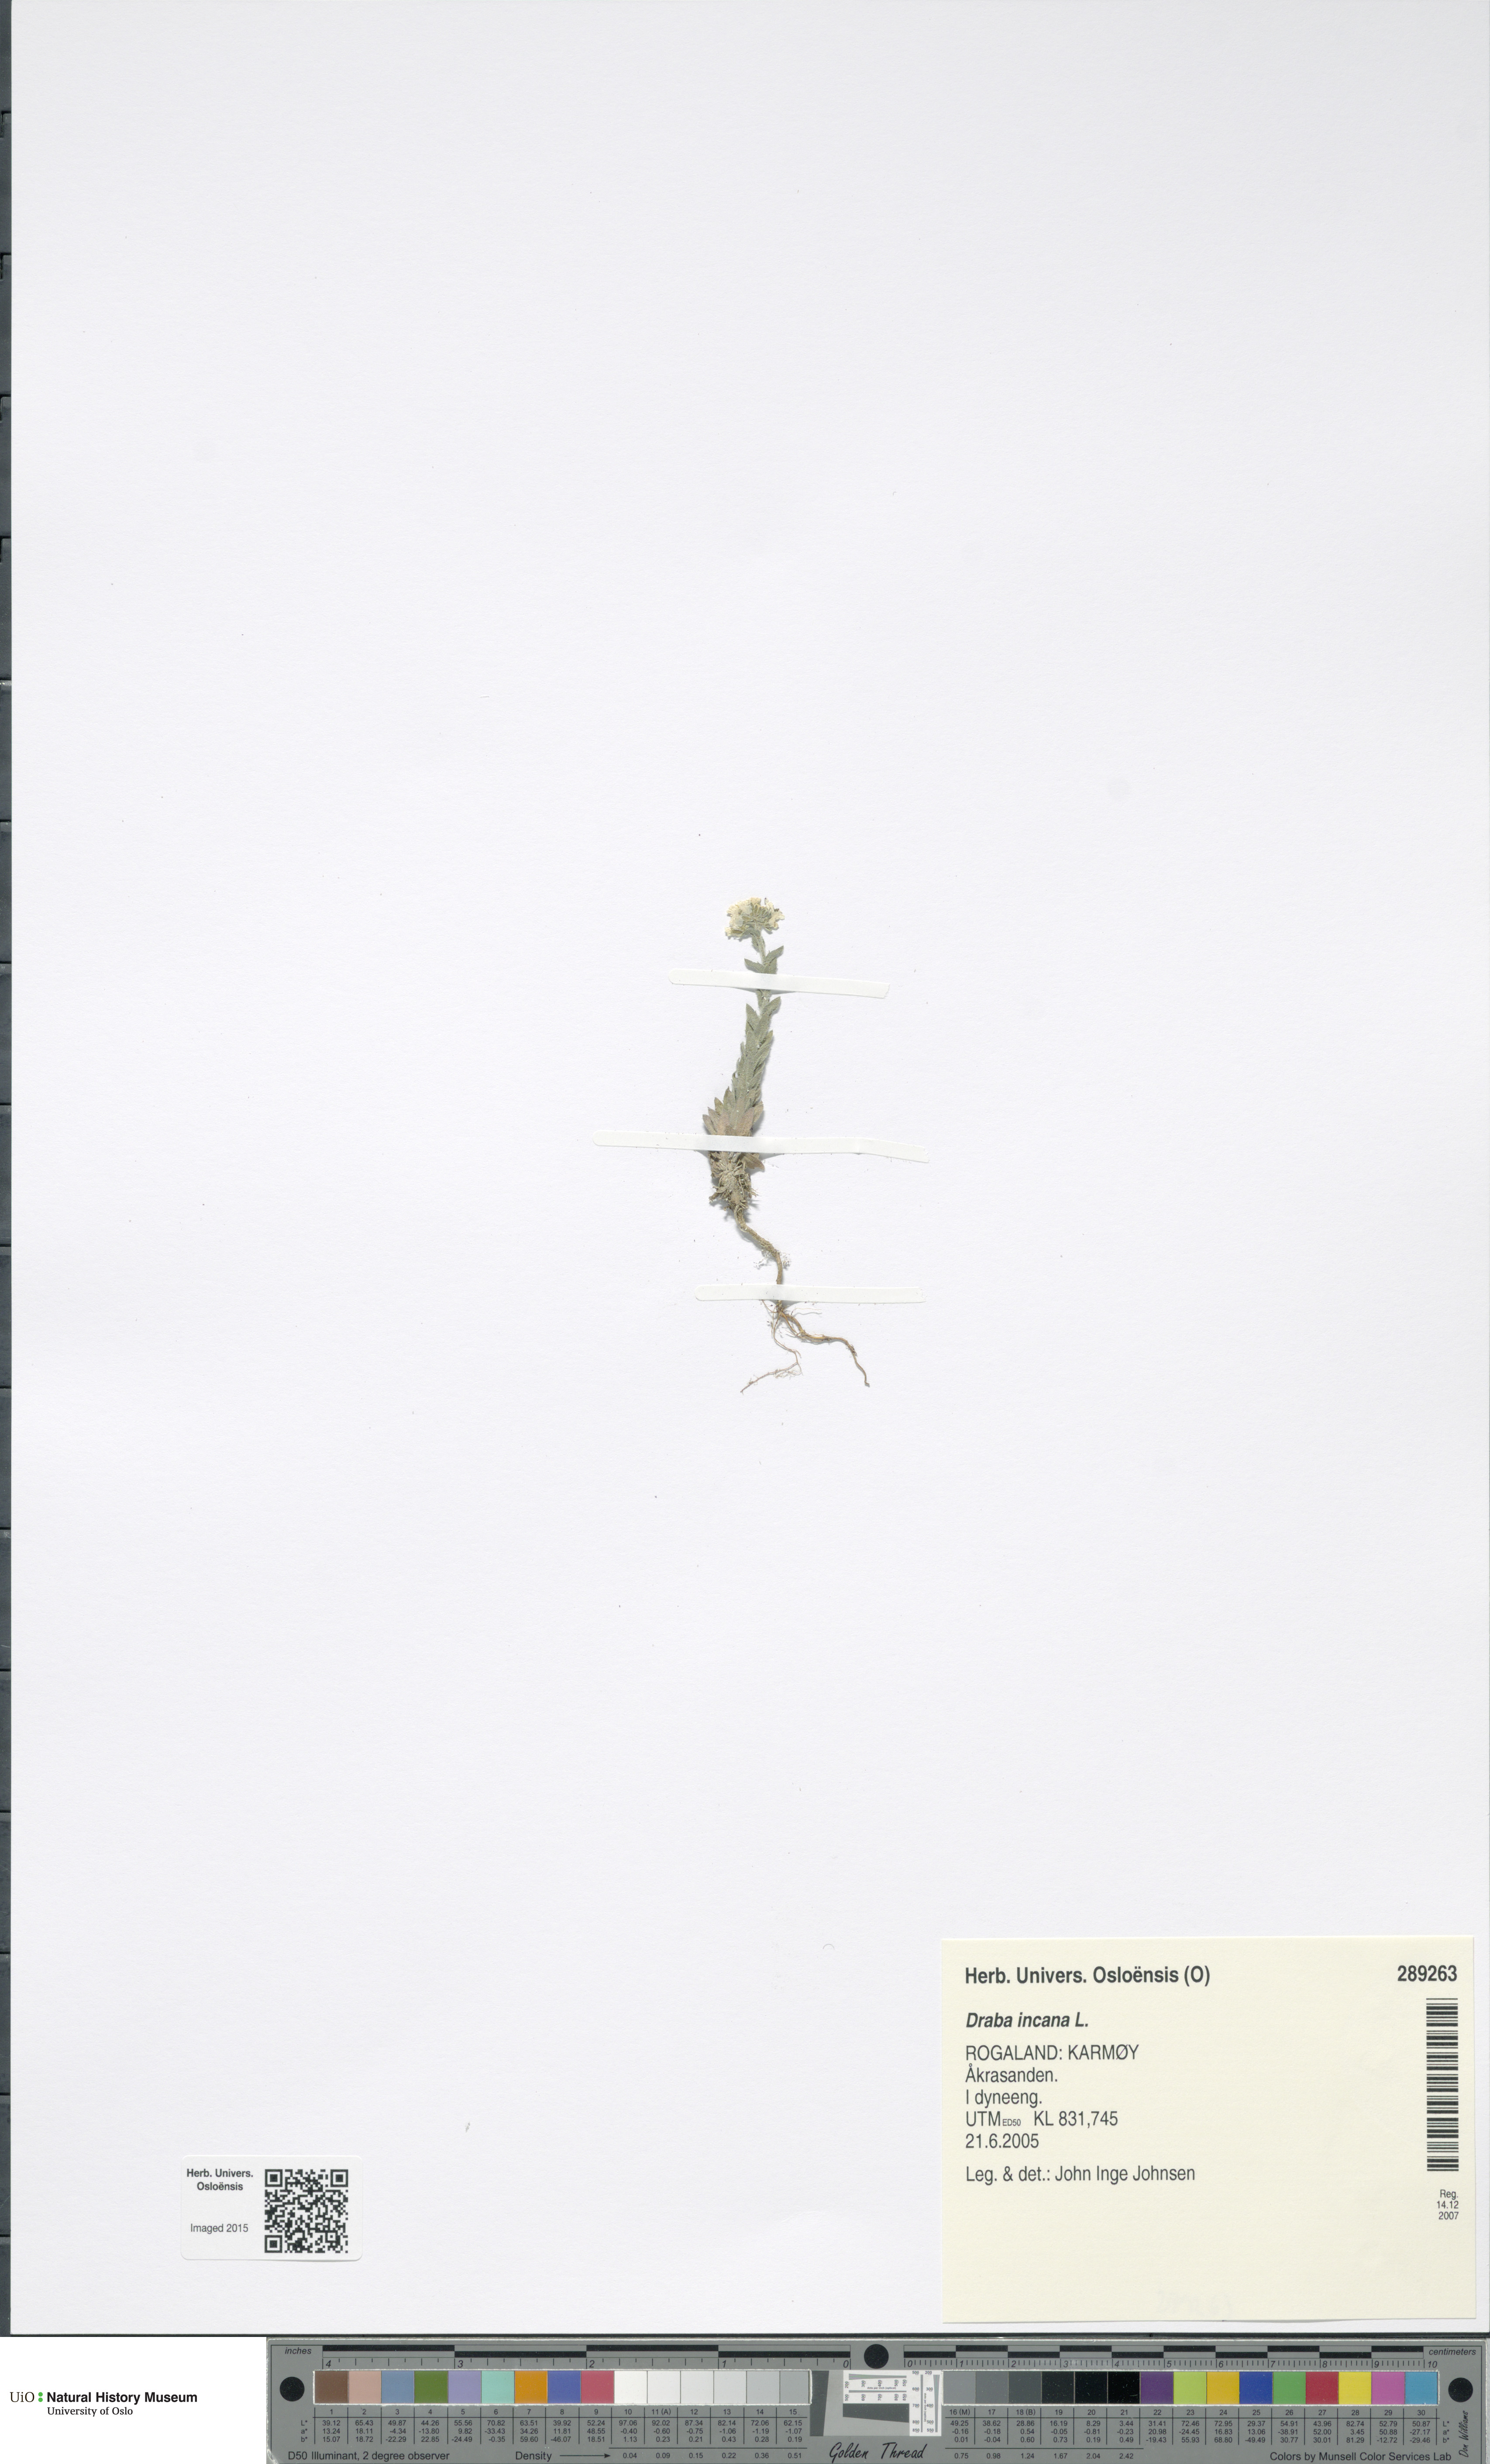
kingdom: Plantae
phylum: Tracheophyta
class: Magnoliopsida
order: Brassicales
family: Brassicaceae
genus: Draba
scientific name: Draba incana
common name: Hoary whitlow-grass
